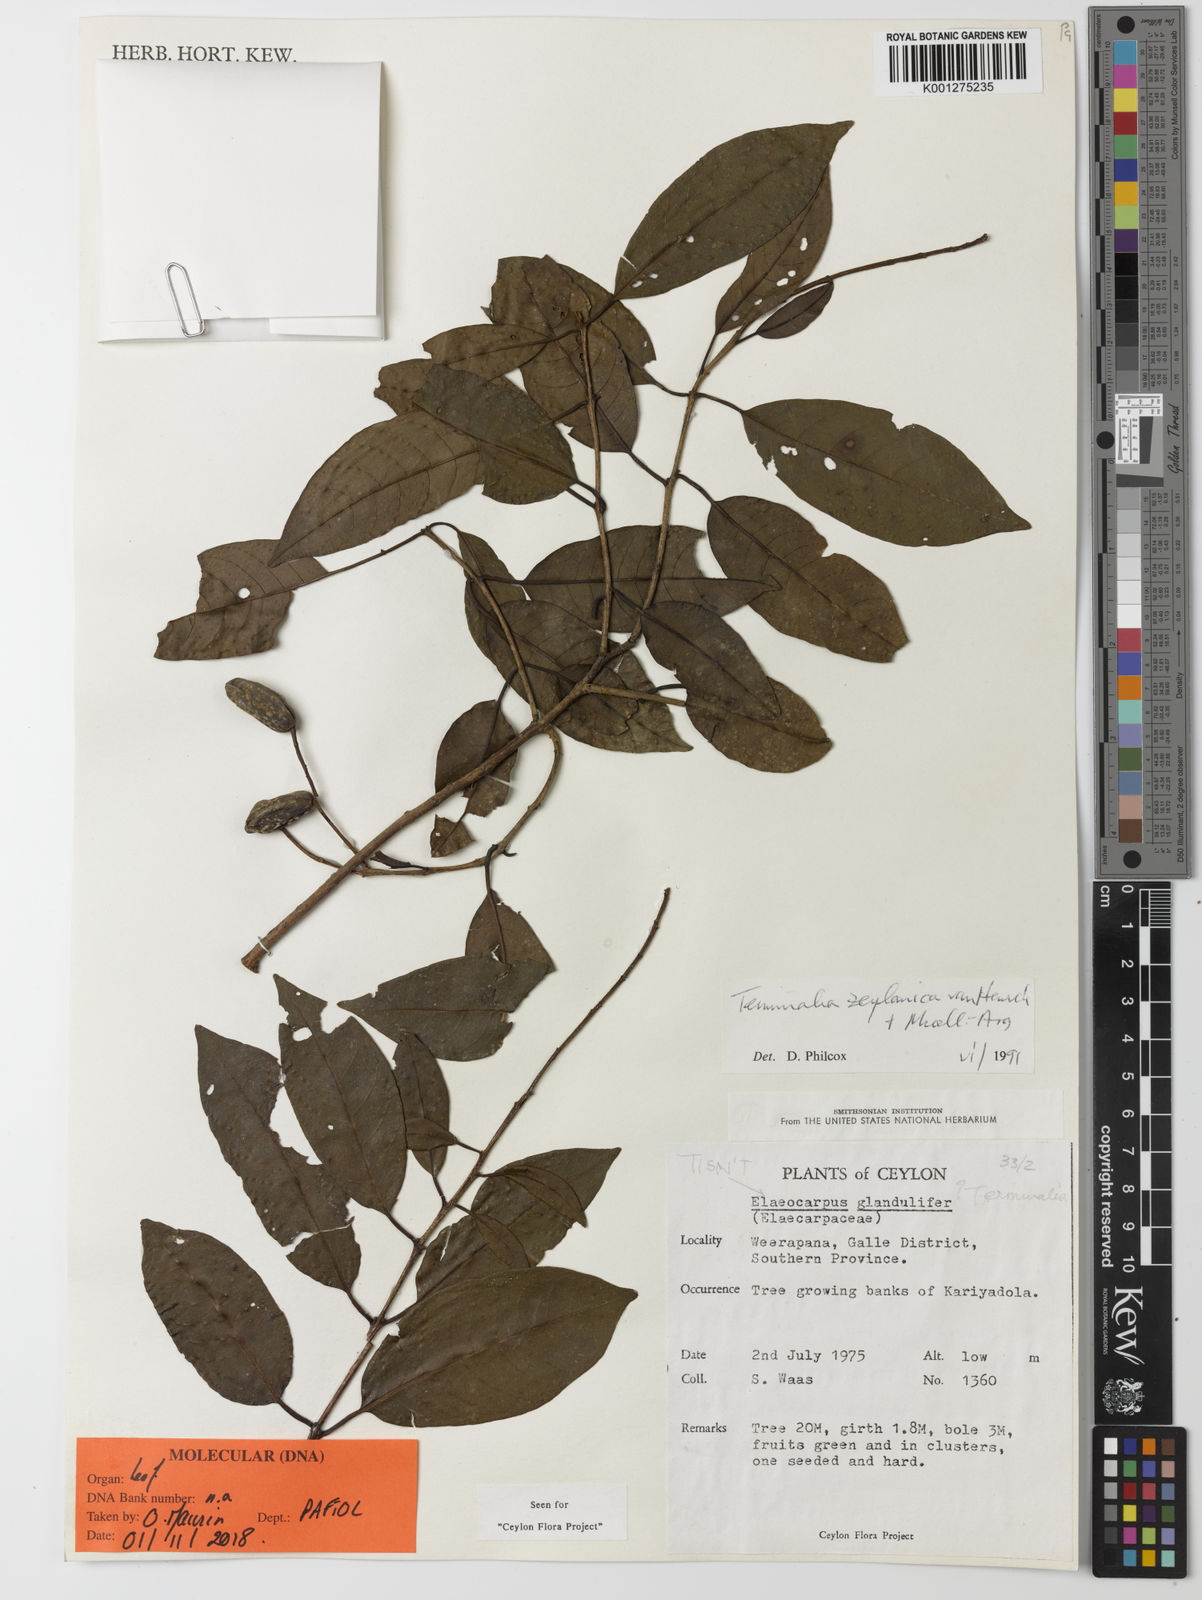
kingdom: Plantae
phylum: Tracheophyta
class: Magnoliopsida
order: Myrtales
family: Combretaceae
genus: Terminalia
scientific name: Terminalia
